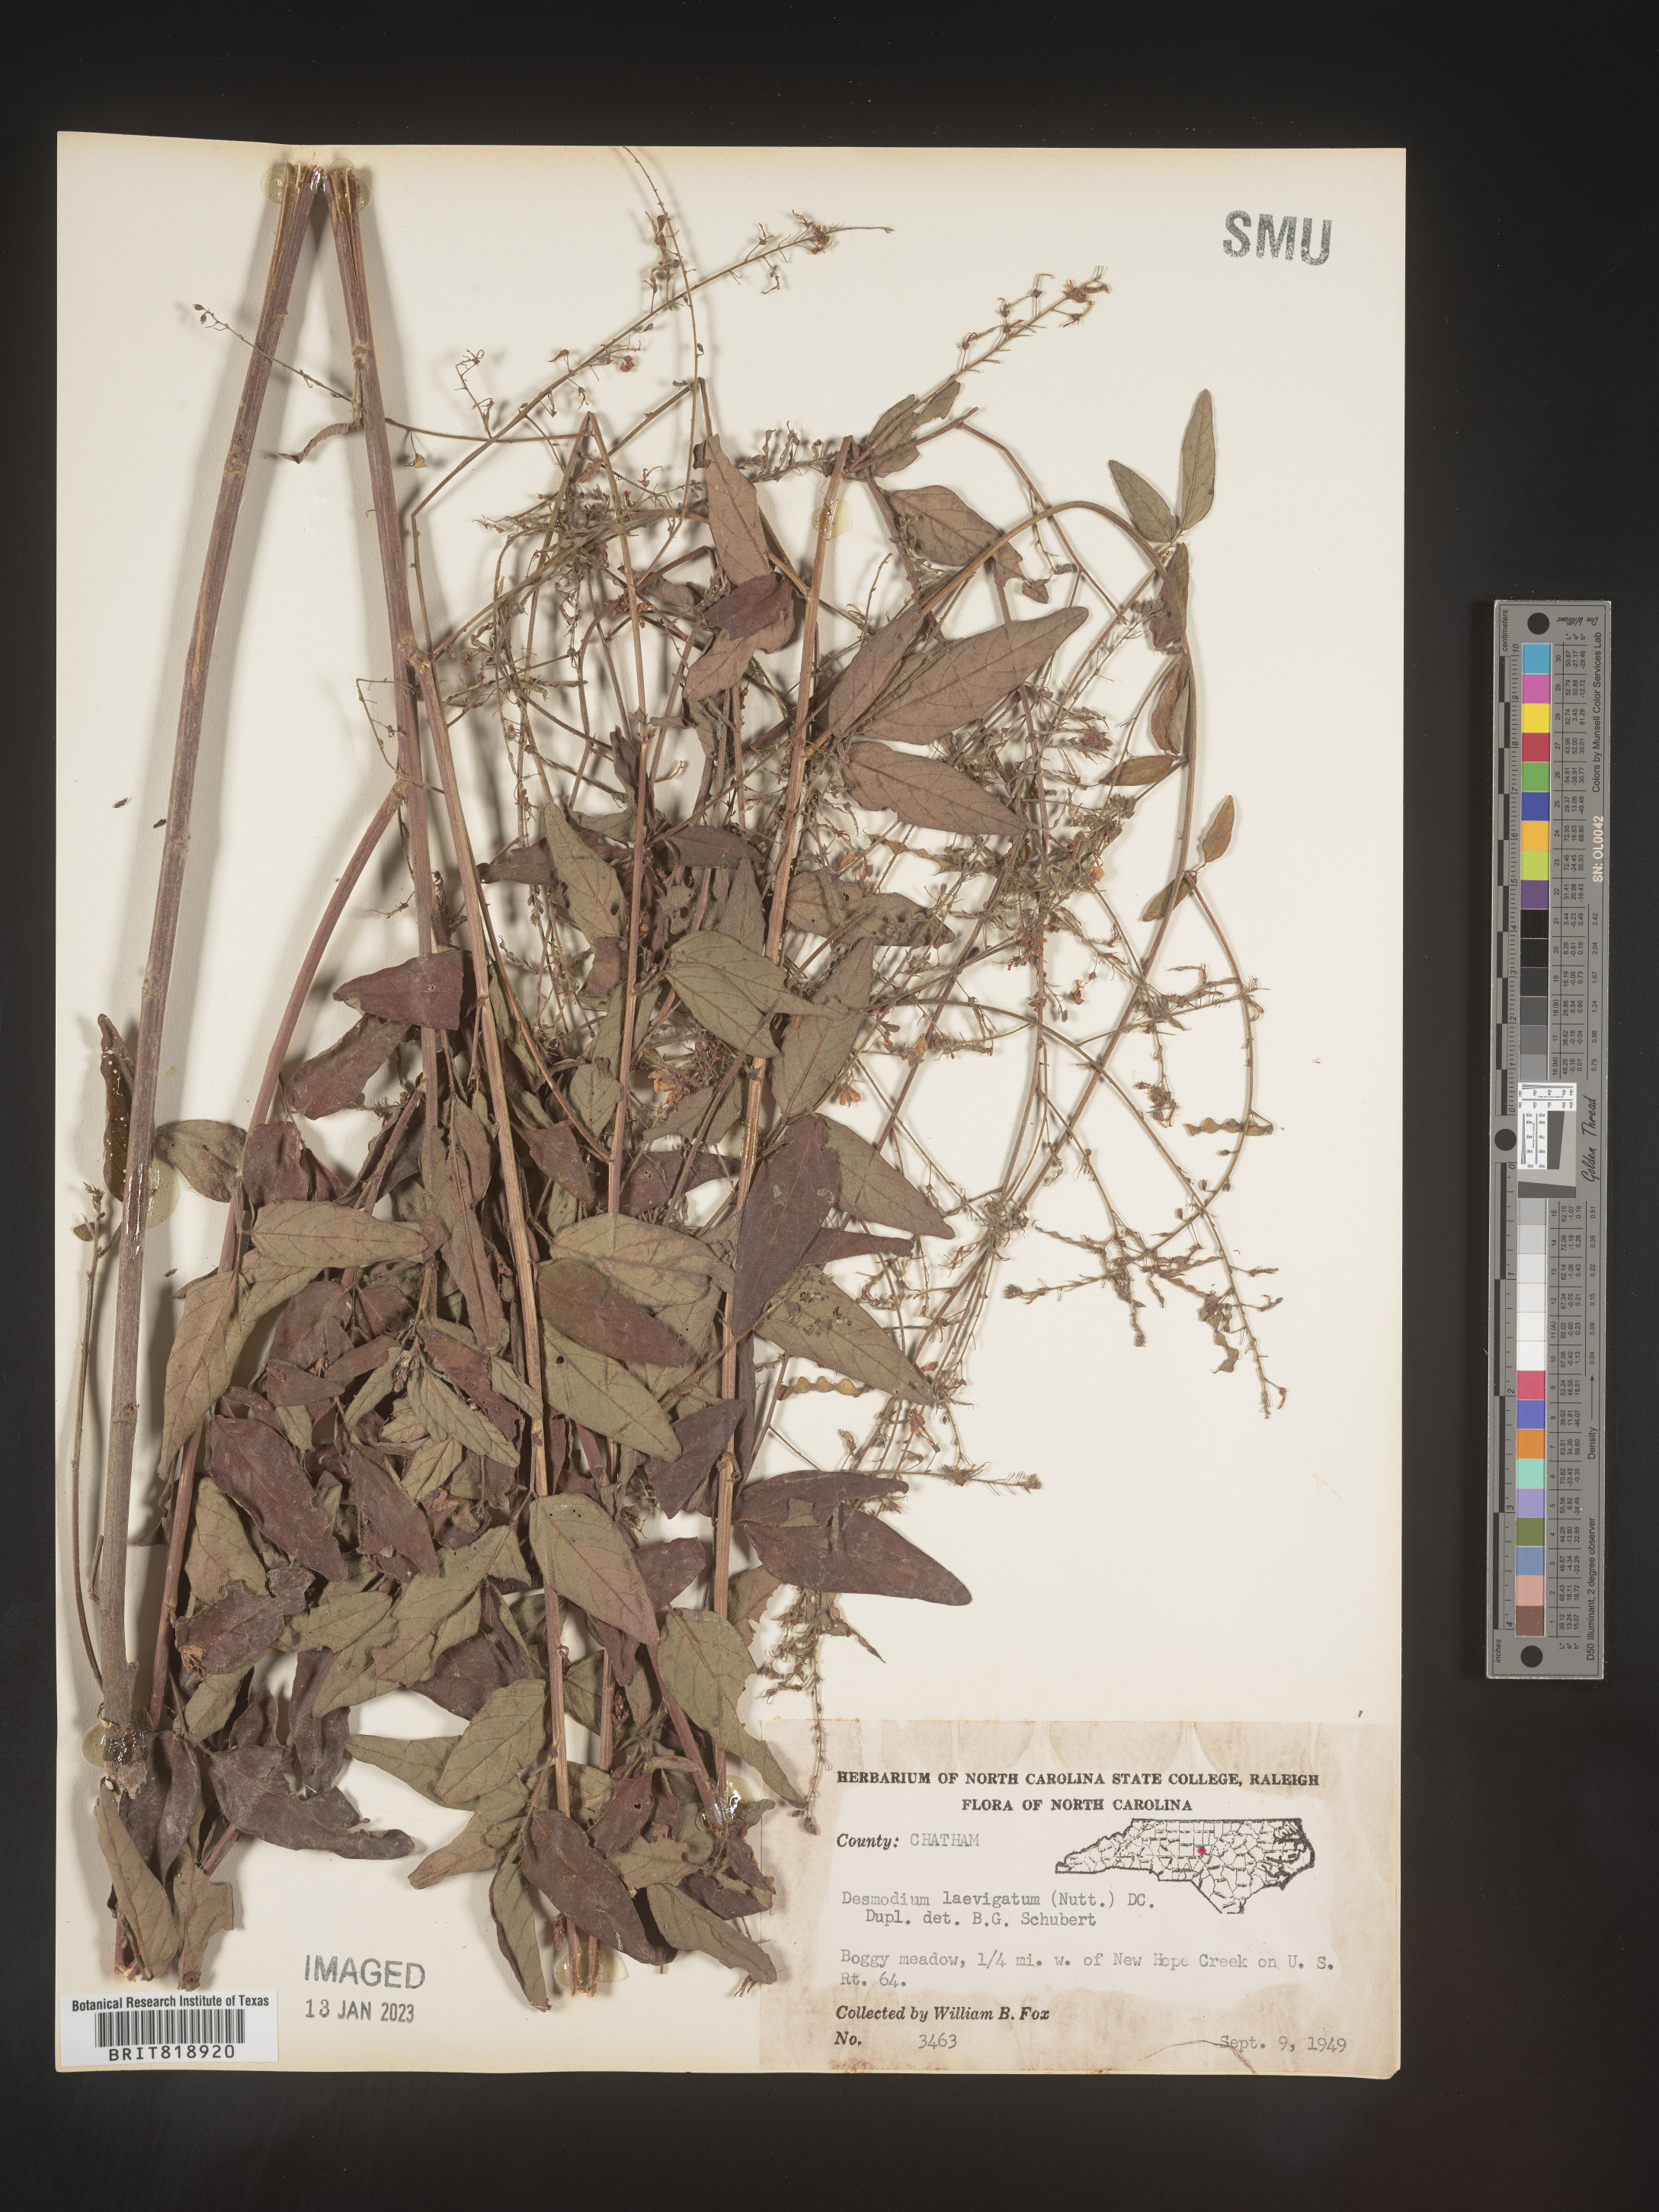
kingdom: Plantae
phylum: Tracheophyta
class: Magnoliopsida
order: Fabales
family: Fabaceae
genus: Desmodium
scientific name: Desmodium laevigatum
